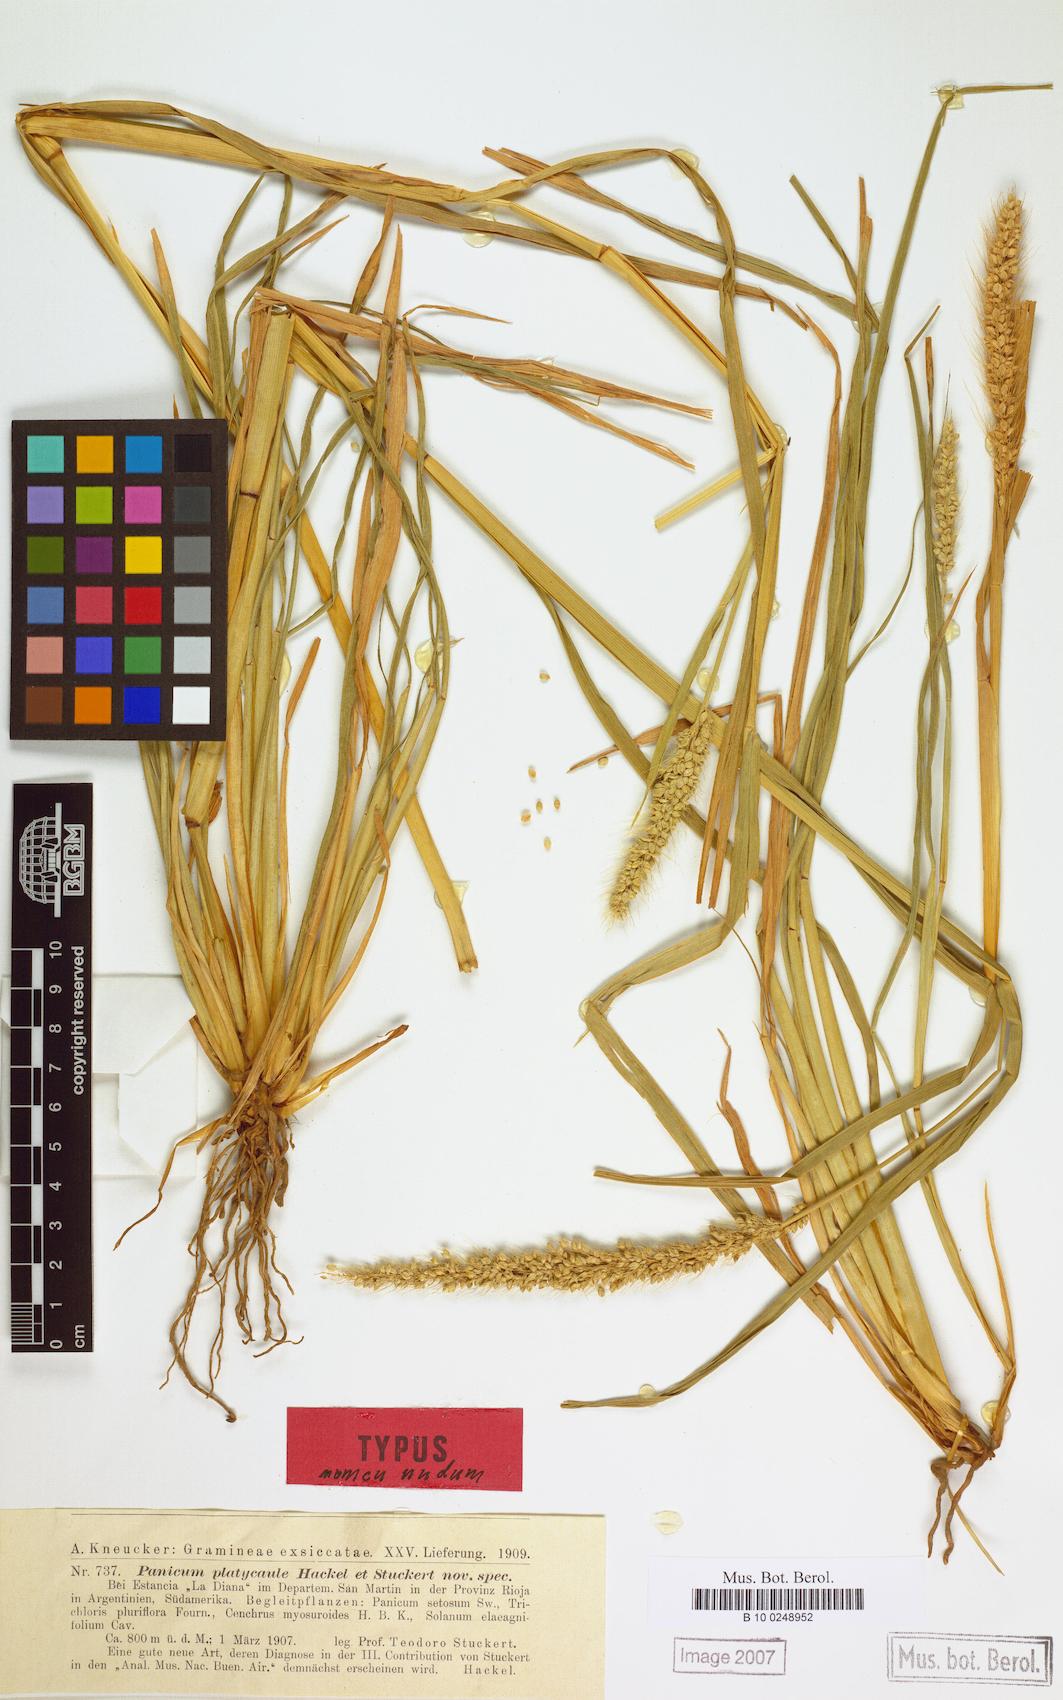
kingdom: Plantae
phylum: Tracheophyta
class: Liliopsida
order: Poales
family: Poaceae
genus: Setaria
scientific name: Setaria cordobensis
